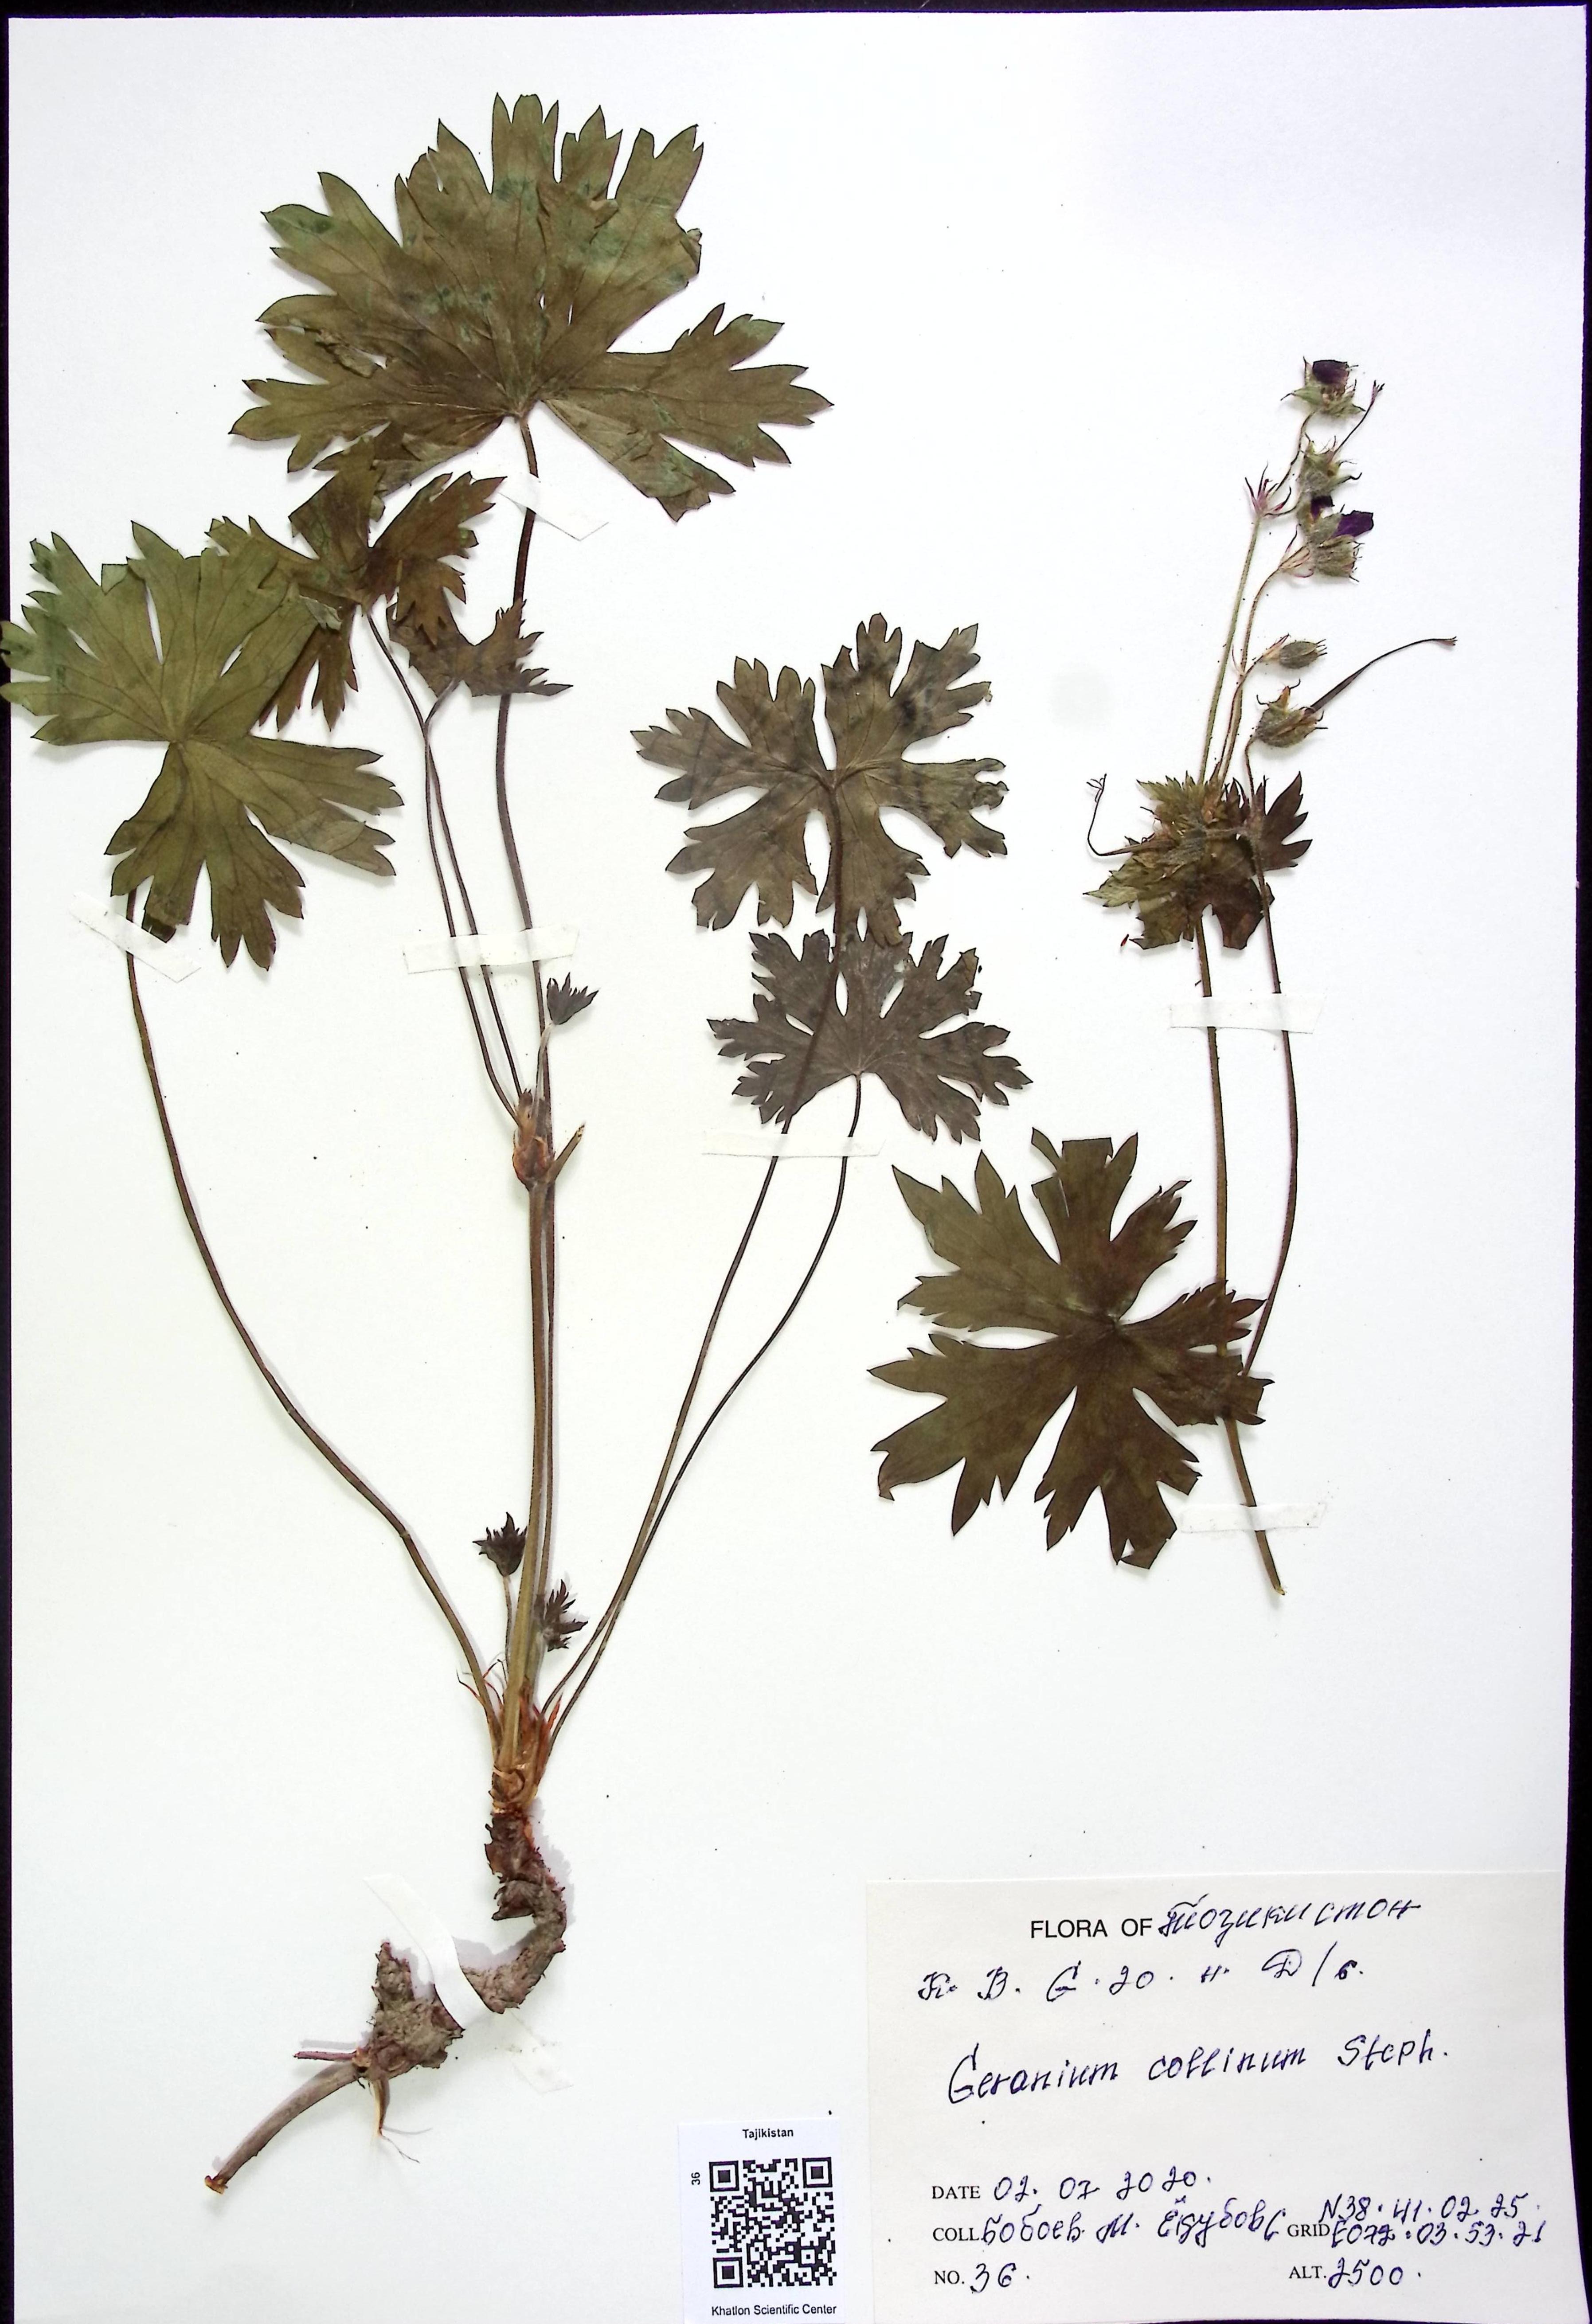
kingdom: Plantae
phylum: Tracheophyta
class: Magnoliopsida
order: Geraniales
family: Geraniaceae
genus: Geranium
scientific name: Geranium
